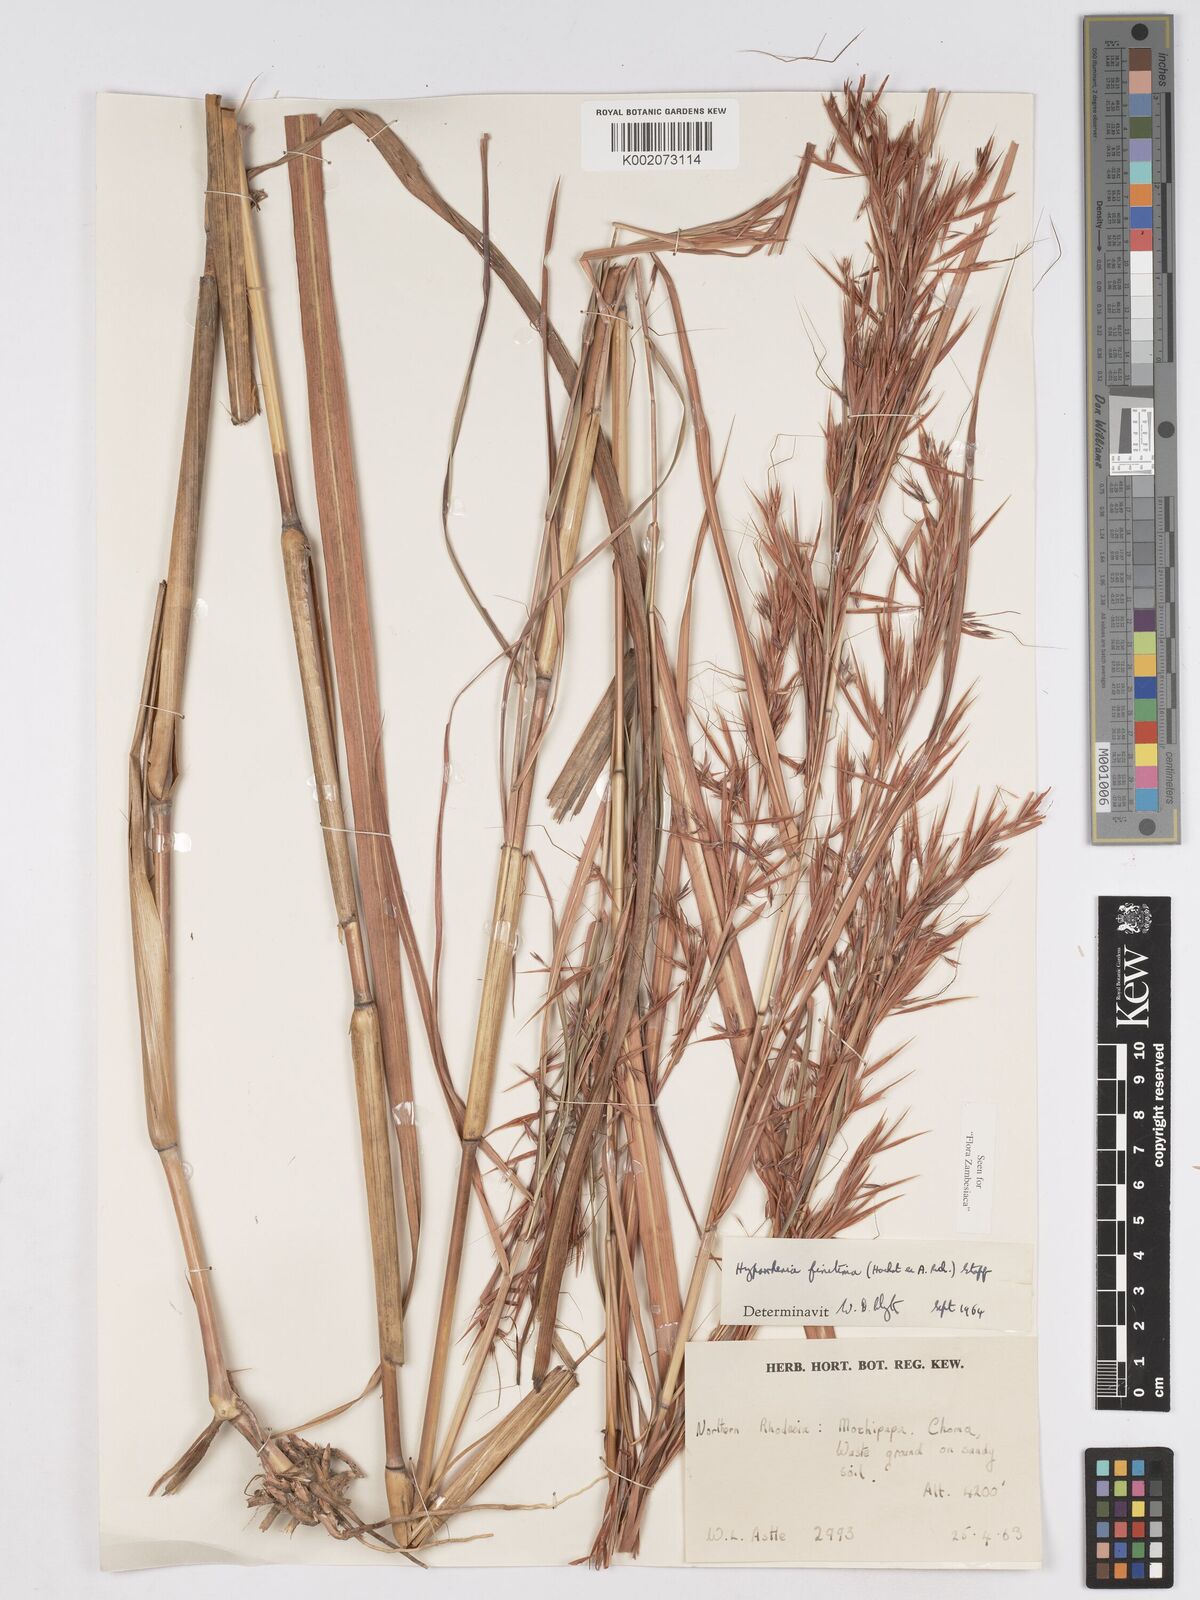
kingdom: Plantae
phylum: Tracheophyta
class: Liliopsida
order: Poales
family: Poaceae
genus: Hyparrhenia
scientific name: Hyparrhenia finitima
